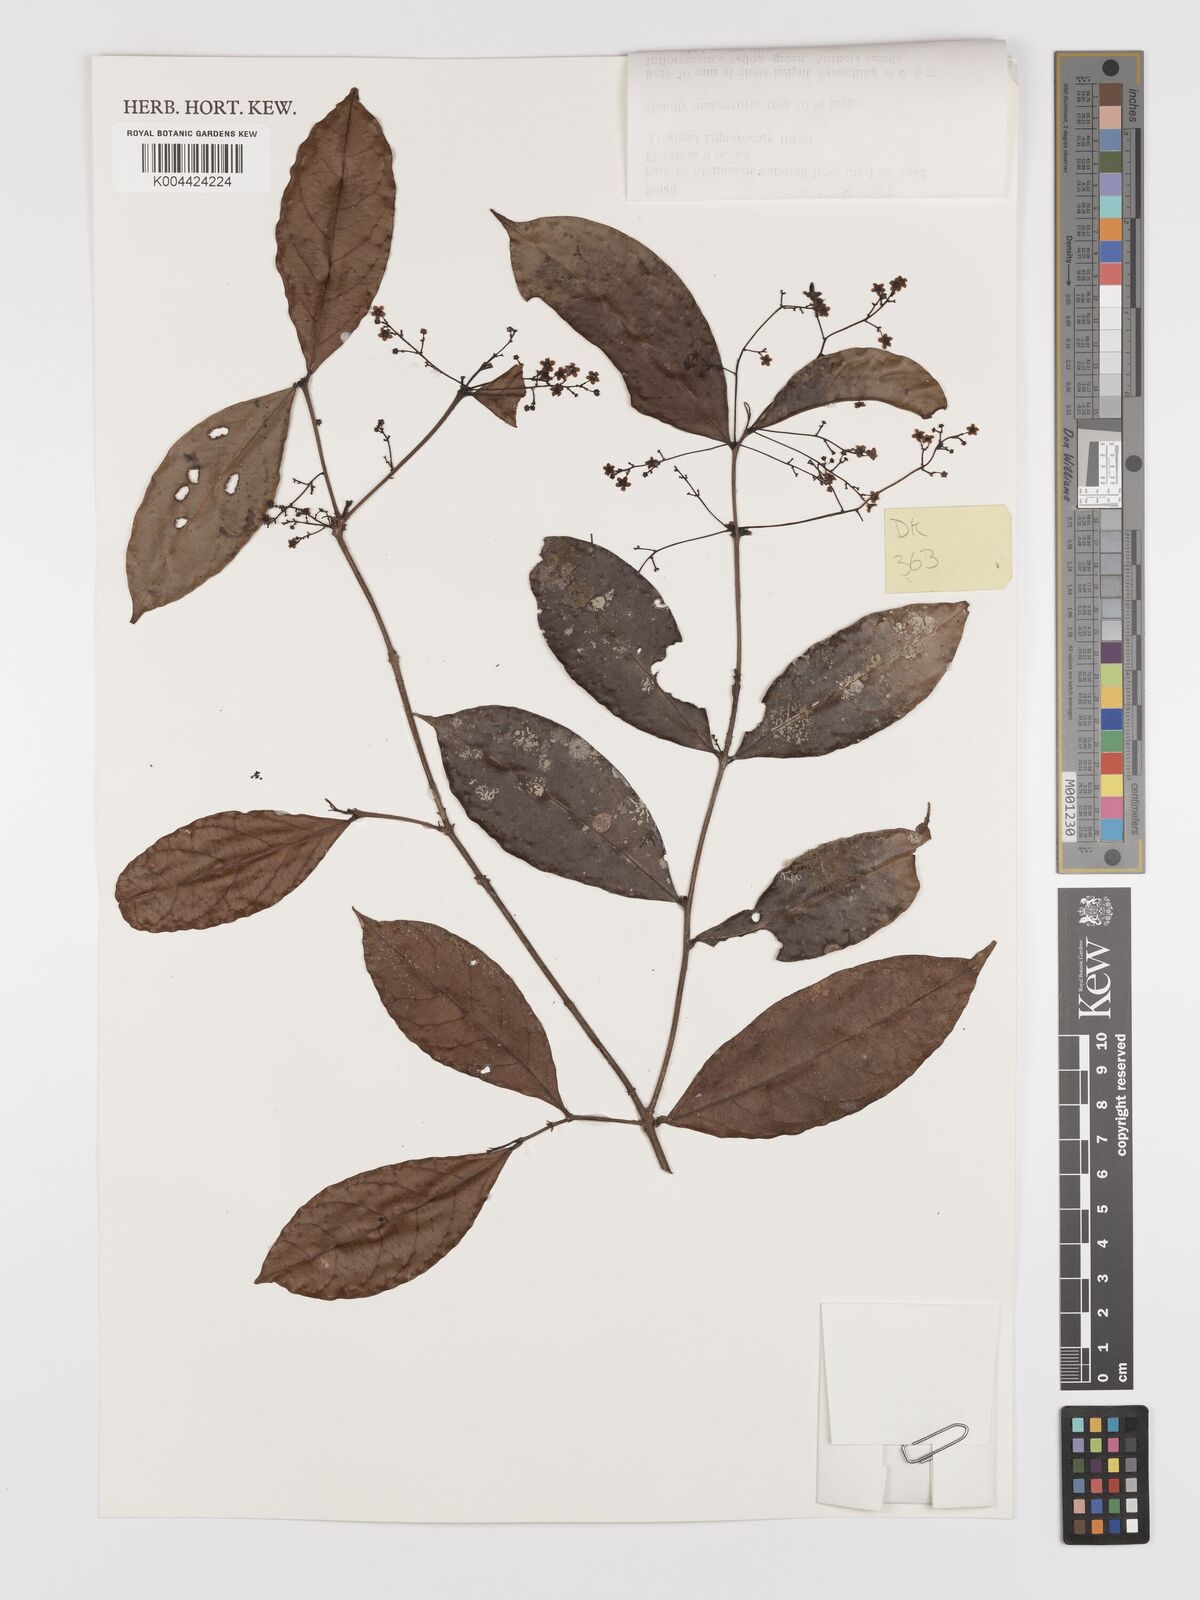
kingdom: Plantae
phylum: Tracheophyta
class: Magnoliopsida
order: Celastrales
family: Celastraceae
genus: Lophopetalum
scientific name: Lophopetalum glabrum
